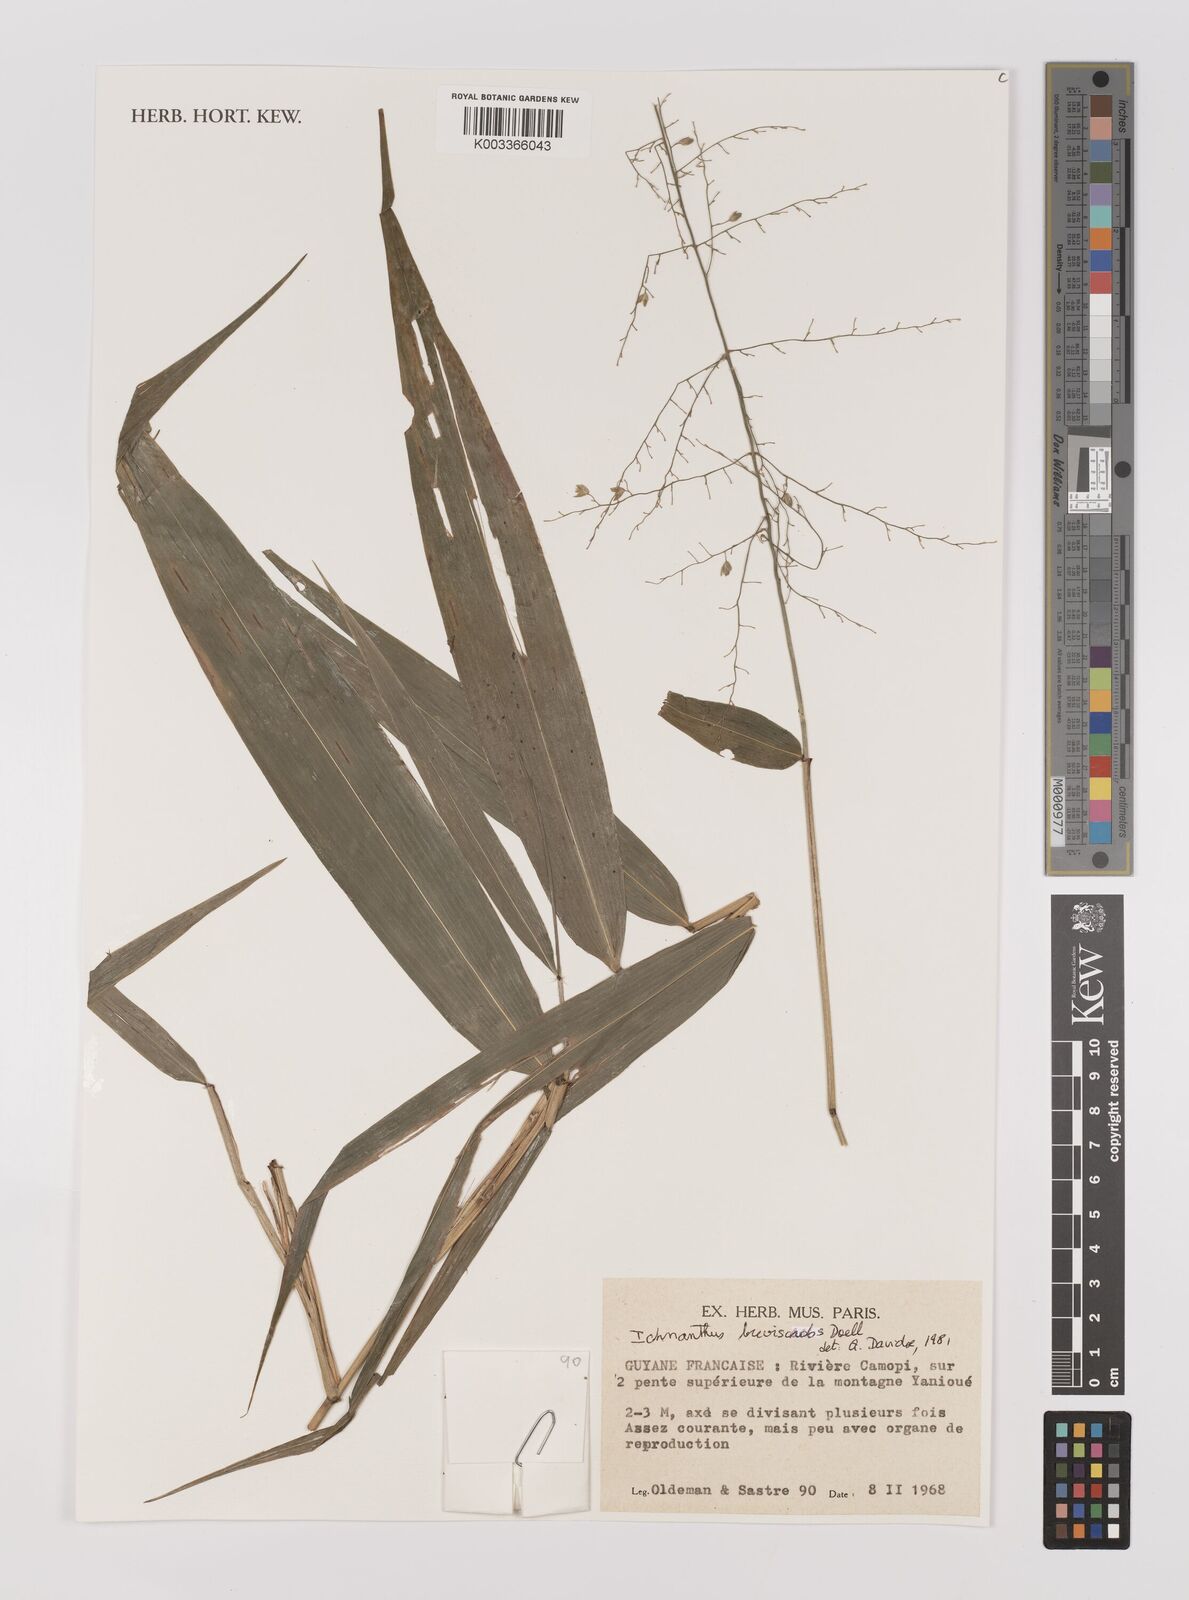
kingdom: Plantae
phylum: Tracheophyta
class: Liliopsida
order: Poales
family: Poaceae
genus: Ichnanthus
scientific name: Ichnanthus breviscrobs
